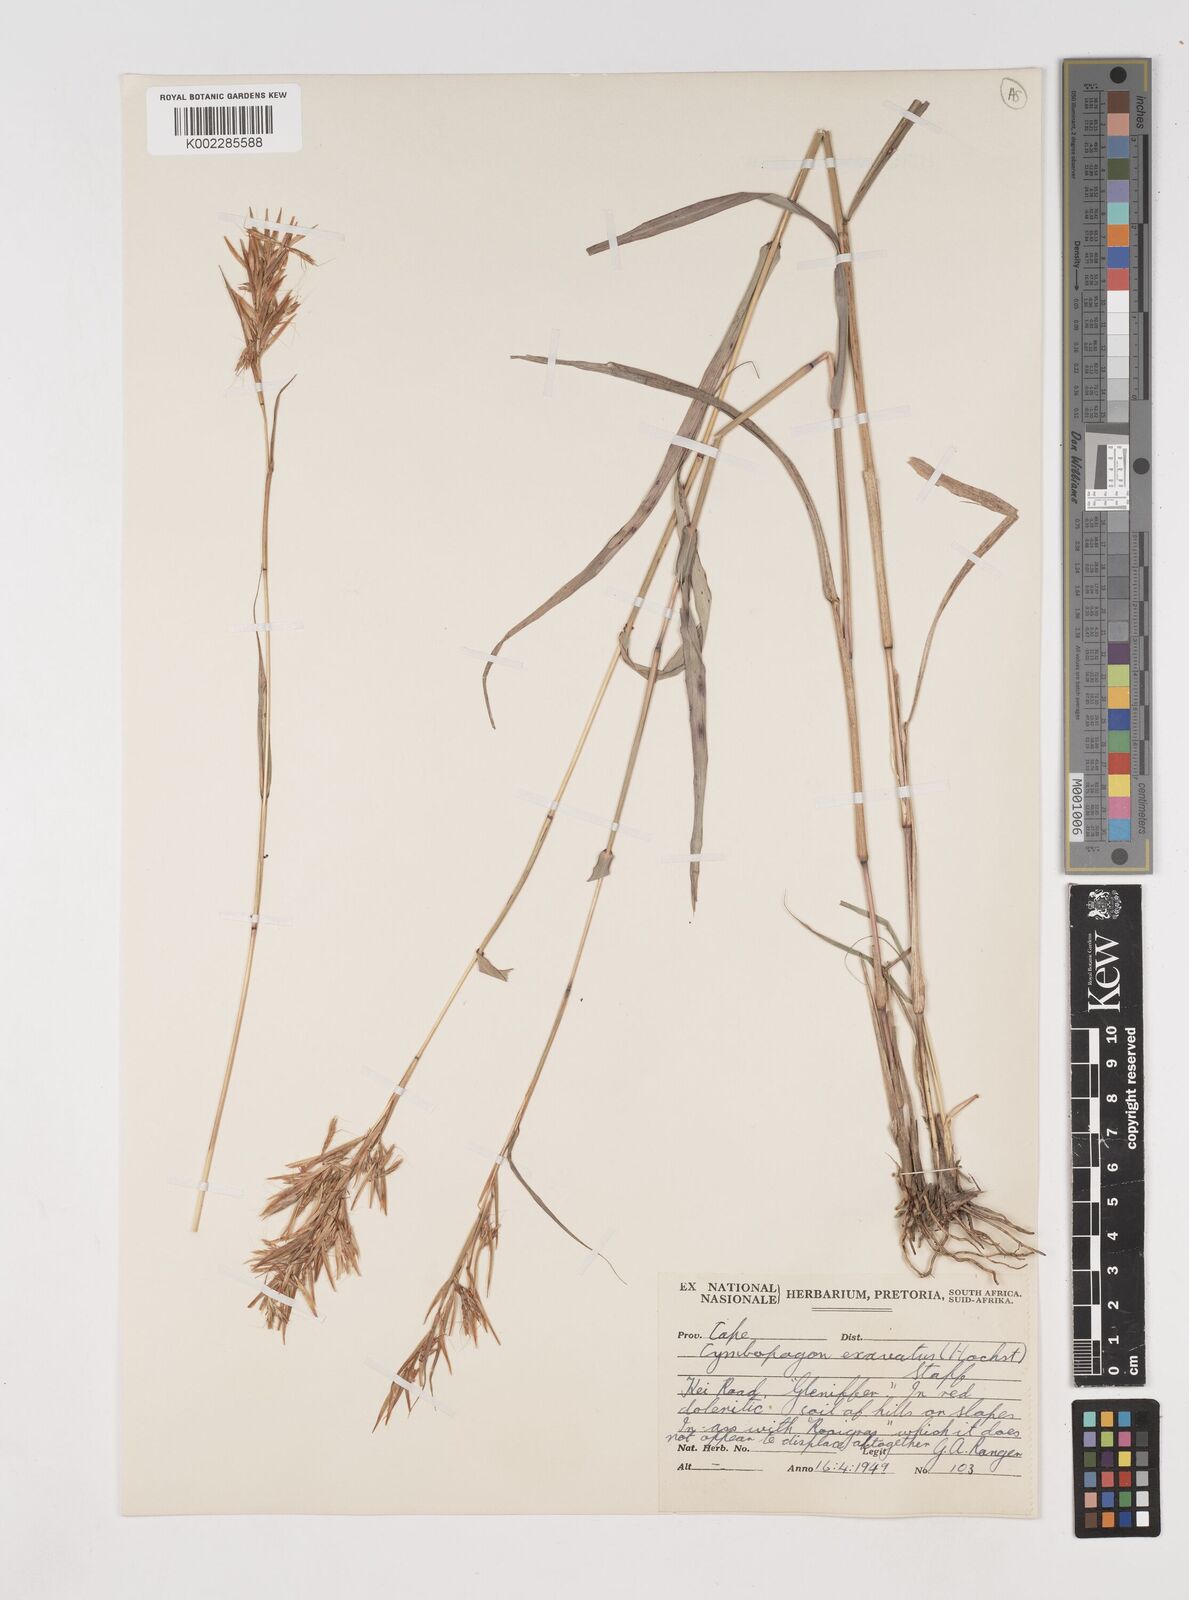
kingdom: Plantae
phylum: Tracheophyta
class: Liliopsida
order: Poales
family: Poaceae
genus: Cymbopogon
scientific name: Cymbopogon caesius
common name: Kachi grass
